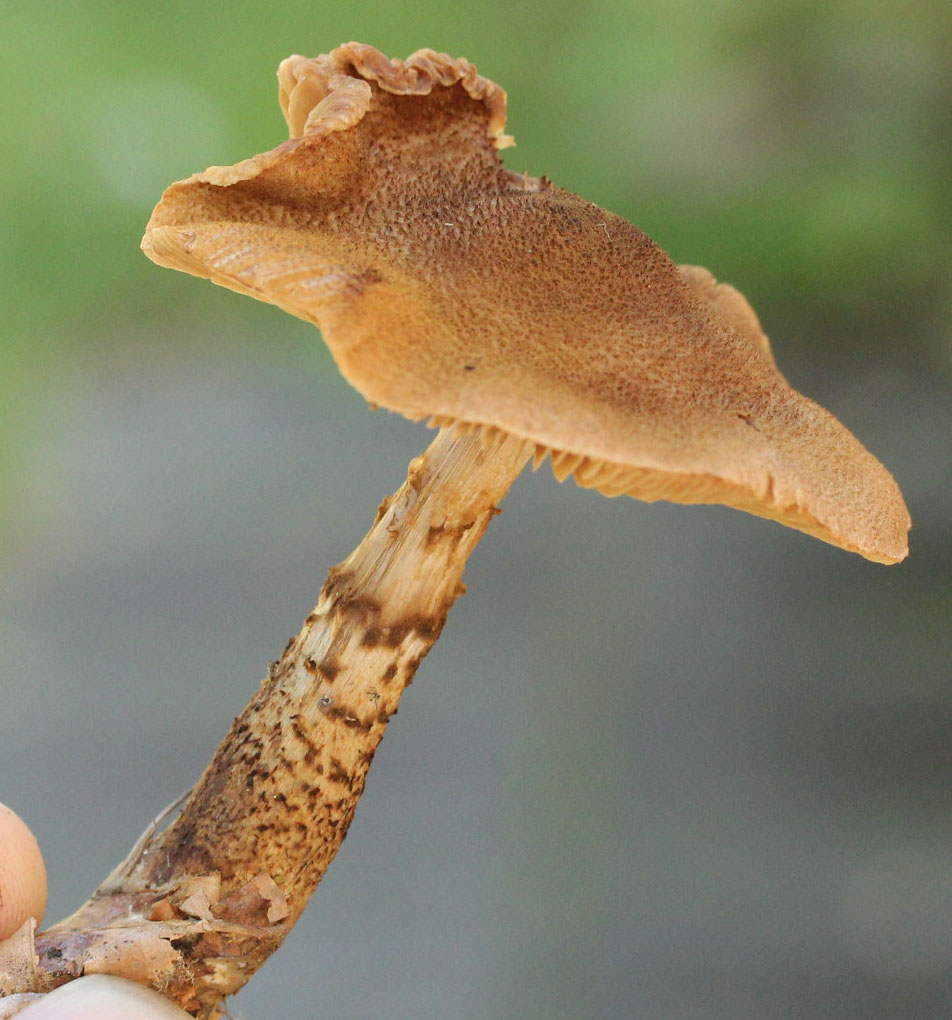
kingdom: Fungi
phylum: Basidiomycota
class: Agaricomycetes
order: Agaricales
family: Cortinariaceae
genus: Cortinarius
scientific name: Cortinarius pholideus
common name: brunskællet slørhat
